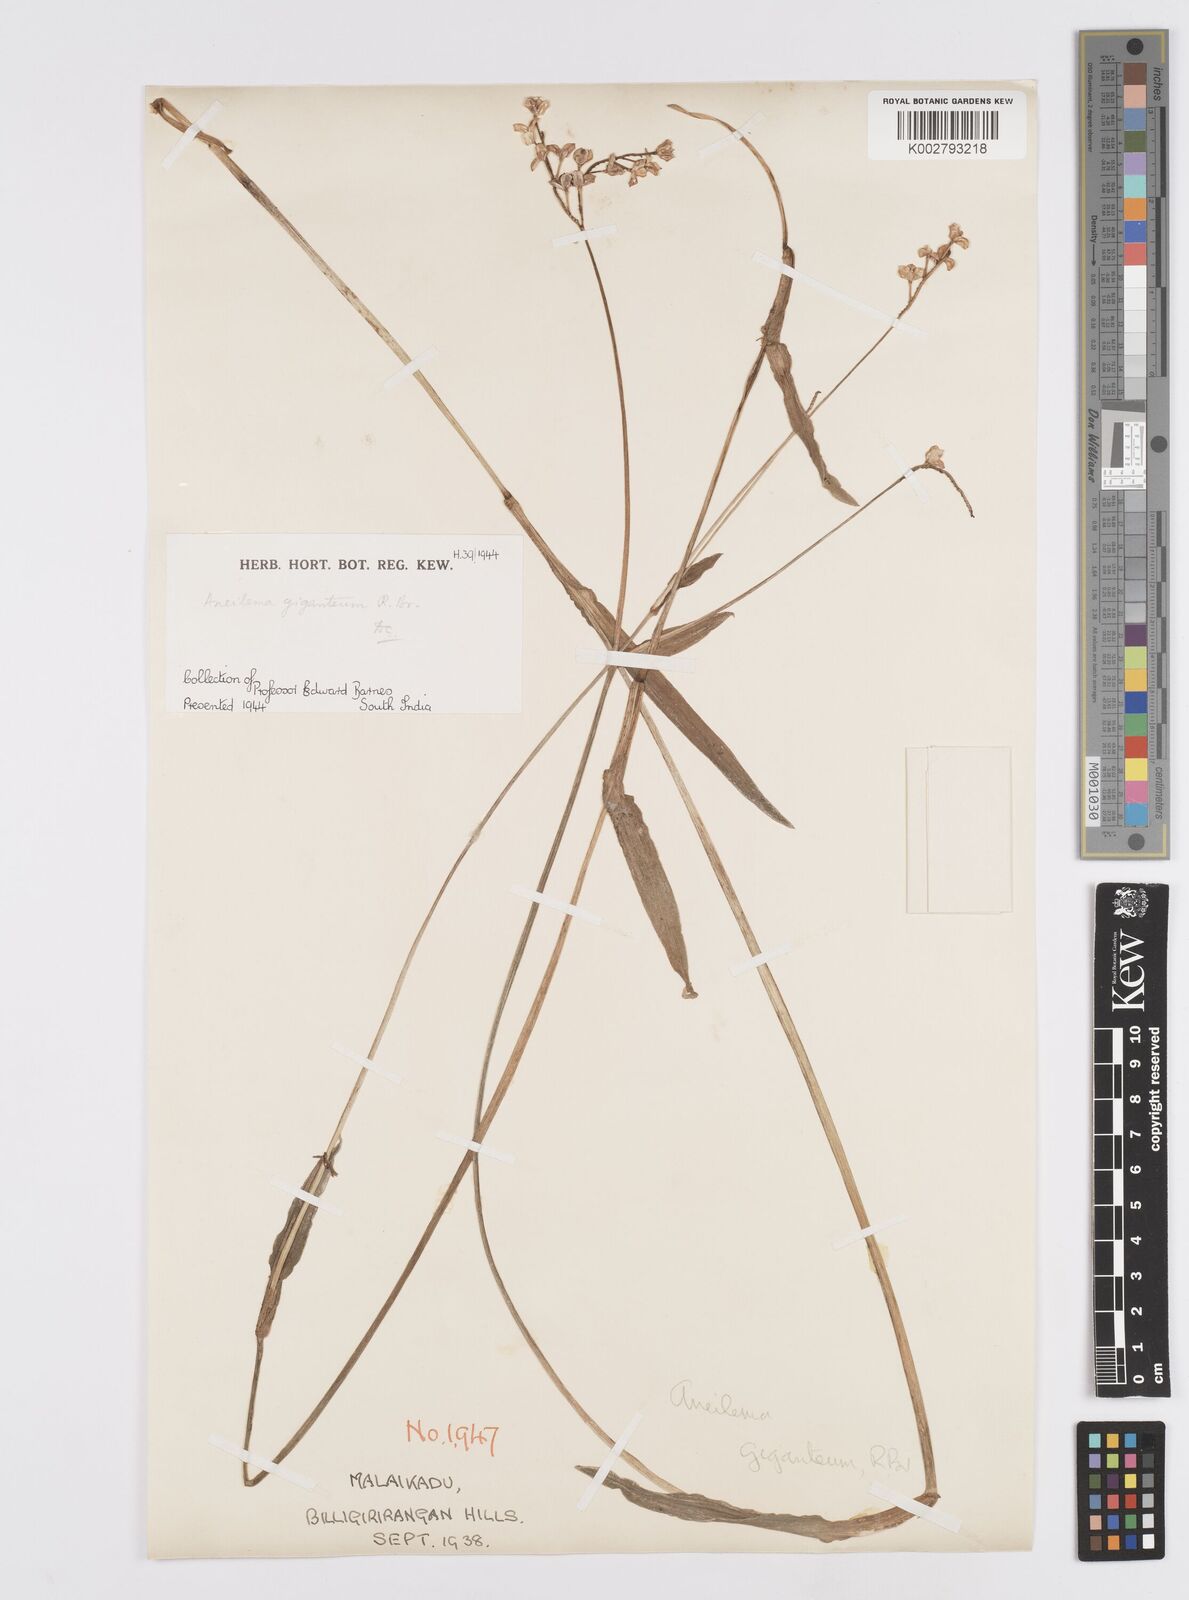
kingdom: Plantae
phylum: Tracheophyta
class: Liliopsida
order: Commelinales
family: Commelinaceae
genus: Murdannia
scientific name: Murdannia simplex
